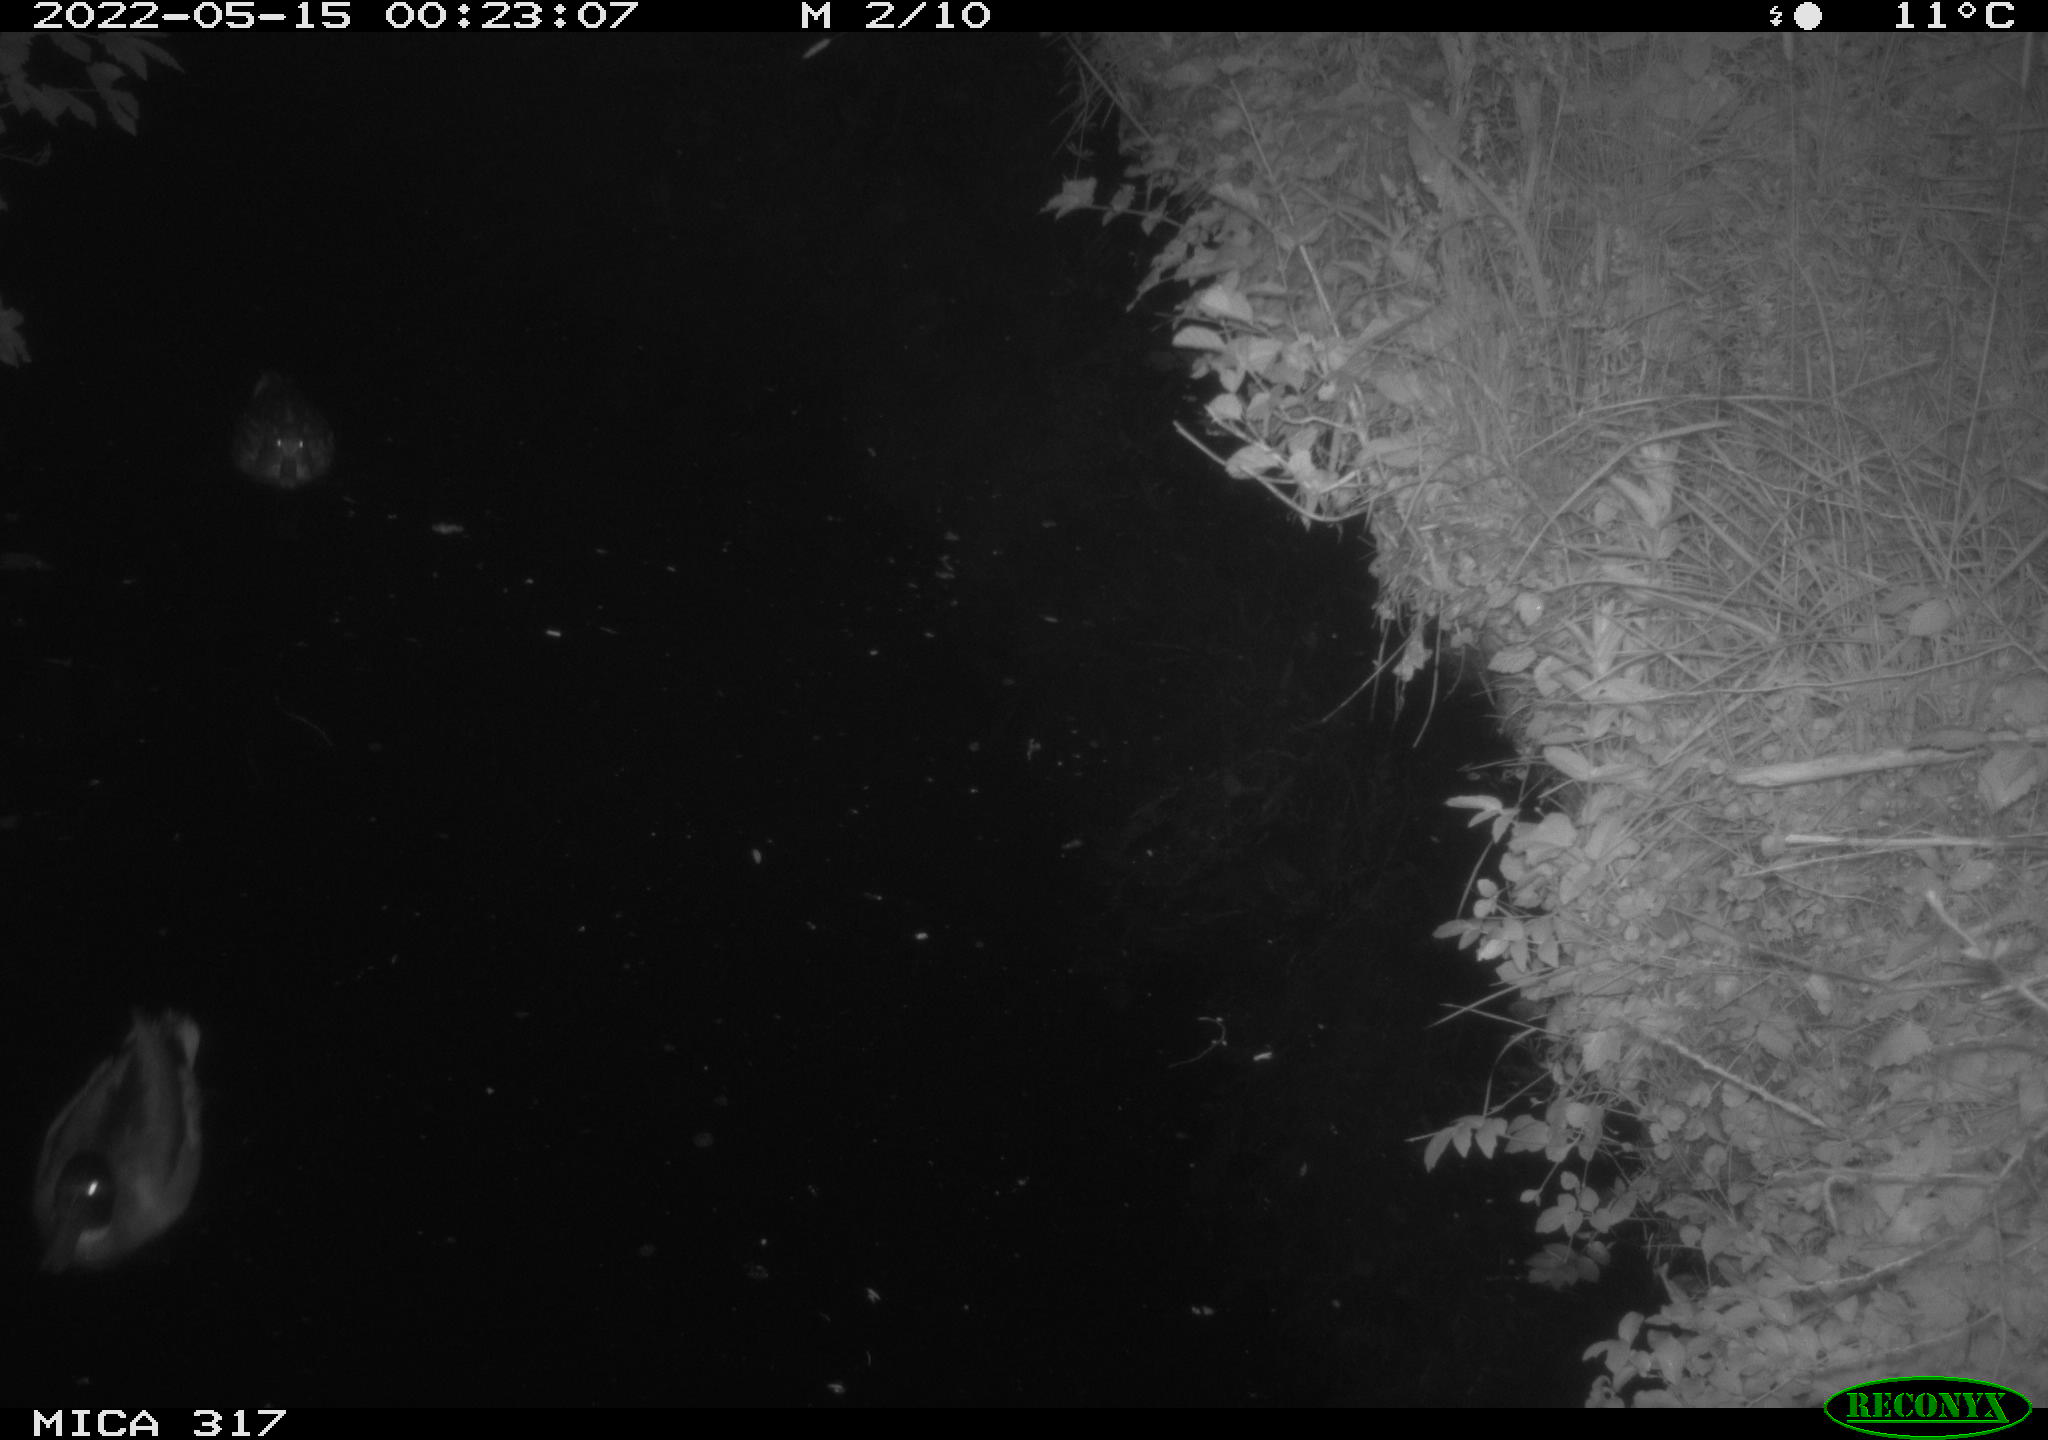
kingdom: Animalia
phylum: Chordata
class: Aves
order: Anseriformes
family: Anatidae
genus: Anas
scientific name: Anas
